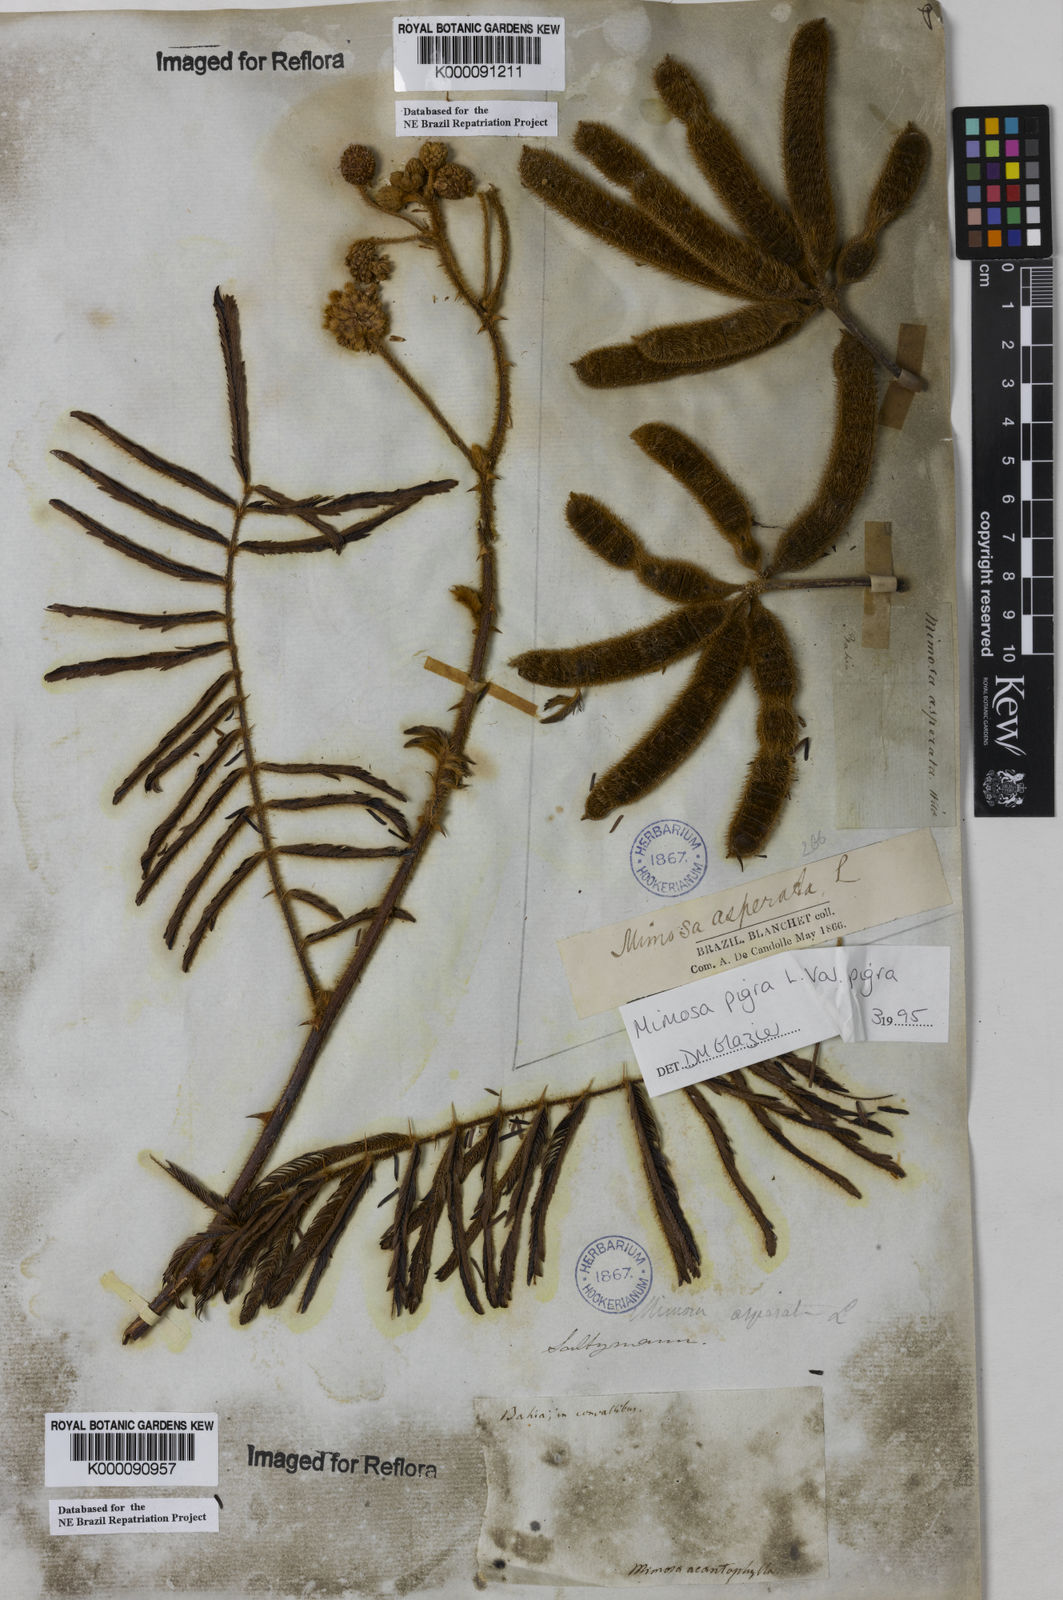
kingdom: Plantae
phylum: Tracheophyta
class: Magnoliopsida
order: Fabales
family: Fabaceae
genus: Mimosa
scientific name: Mimosa pigra
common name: Black mimosa
